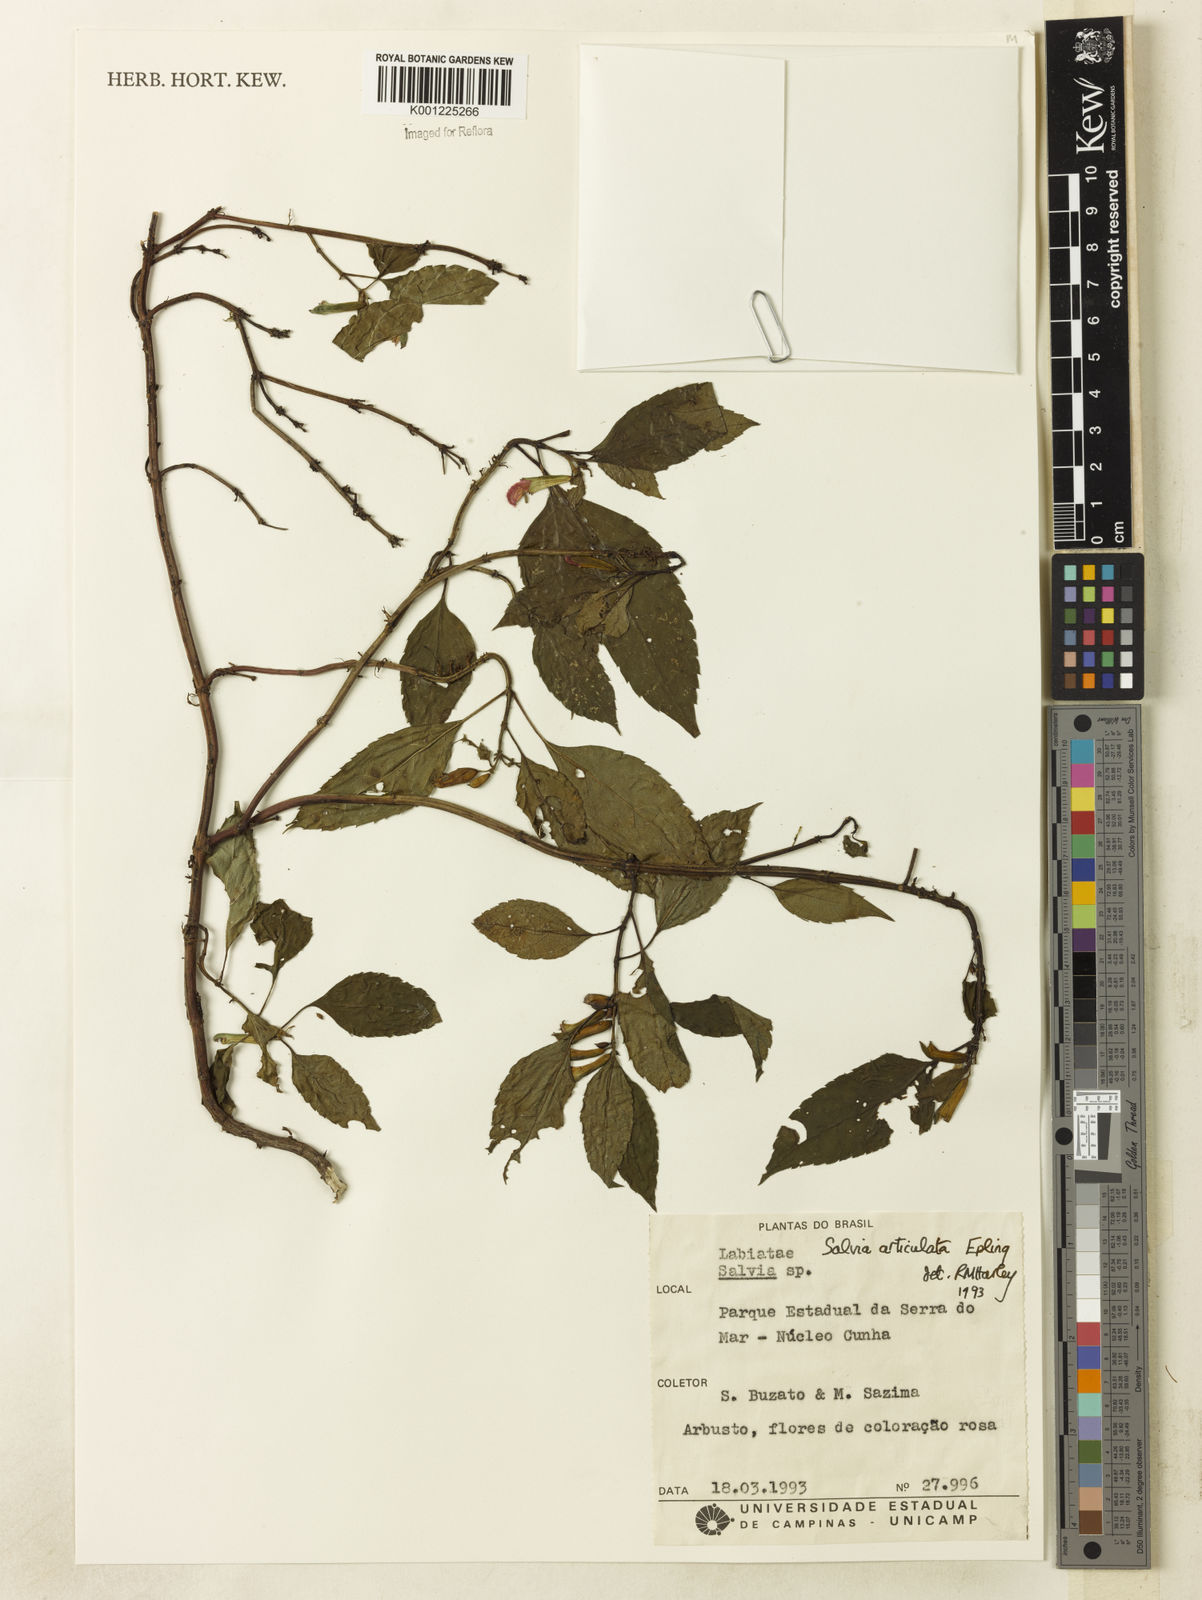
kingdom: Plantae
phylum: Tracheophyta
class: Magnoliopsida
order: Lamiales
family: Lamiaceae
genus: Salvia
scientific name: Salvia articulata
